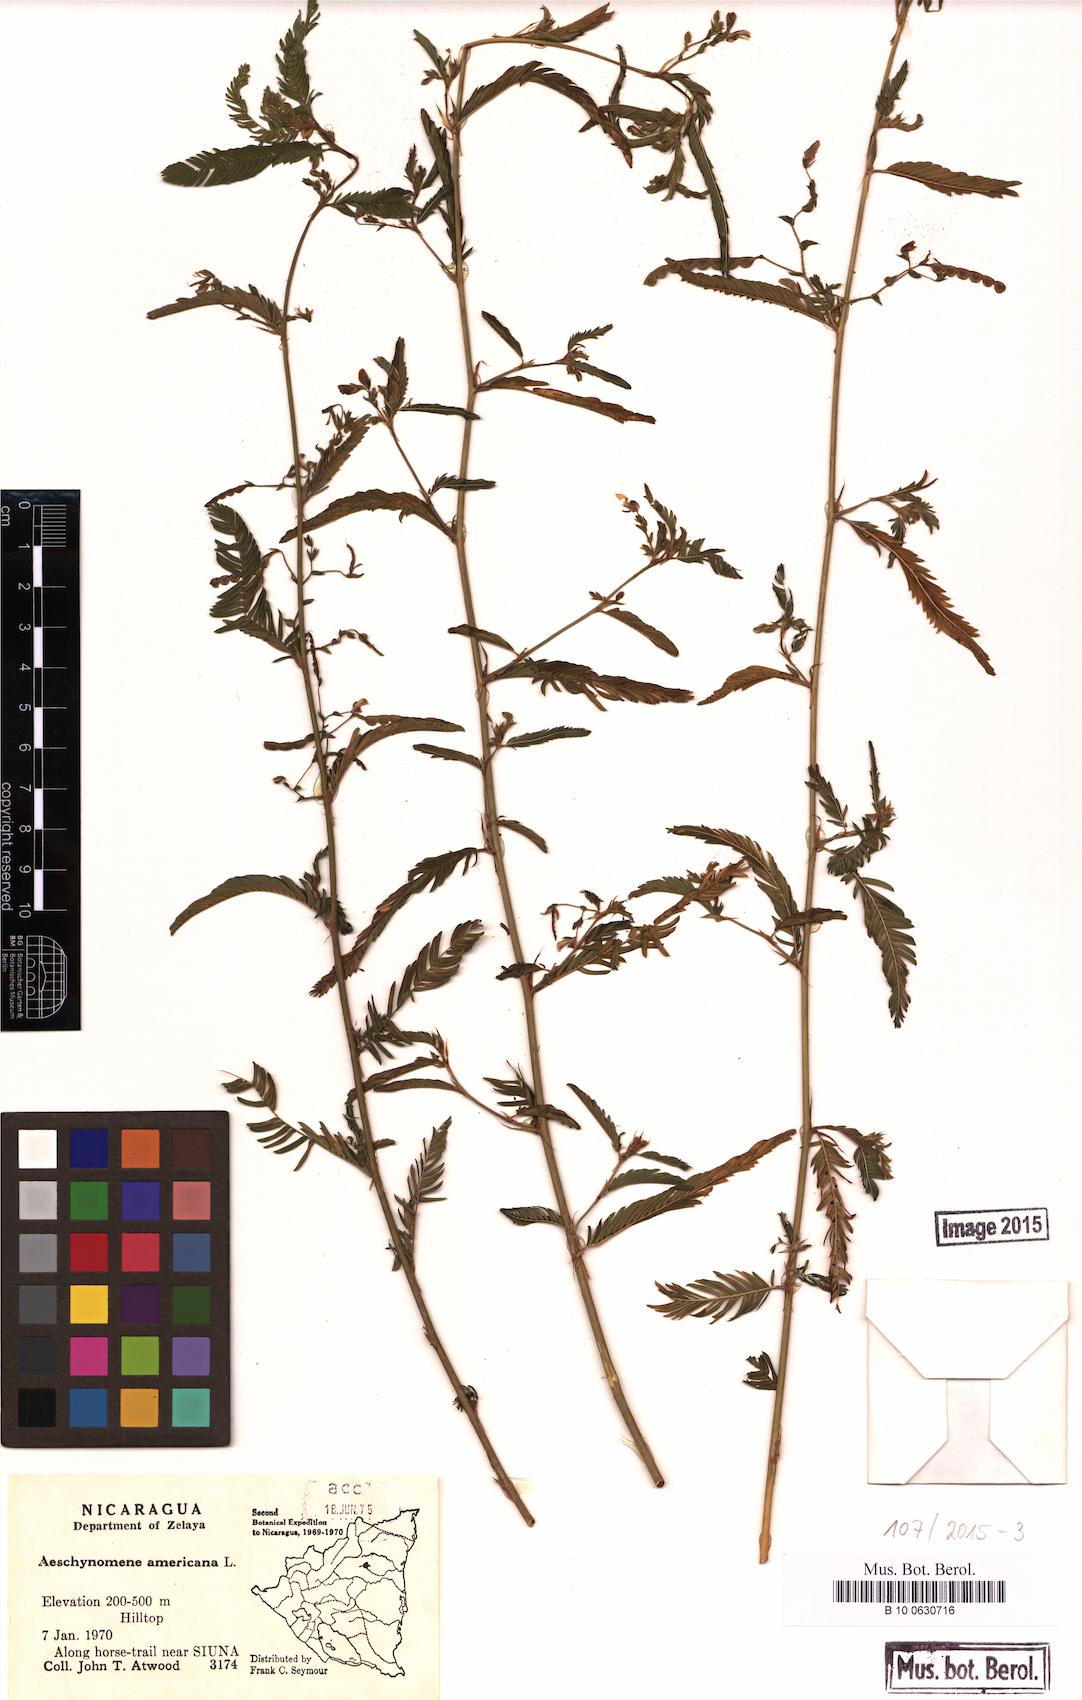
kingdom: Plantae
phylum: Tracheophyta
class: Magnoliopsida
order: Fabales
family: Fabaceae
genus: Aeschynomene
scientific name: Aeschynomene americana
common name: Joint-vetch
